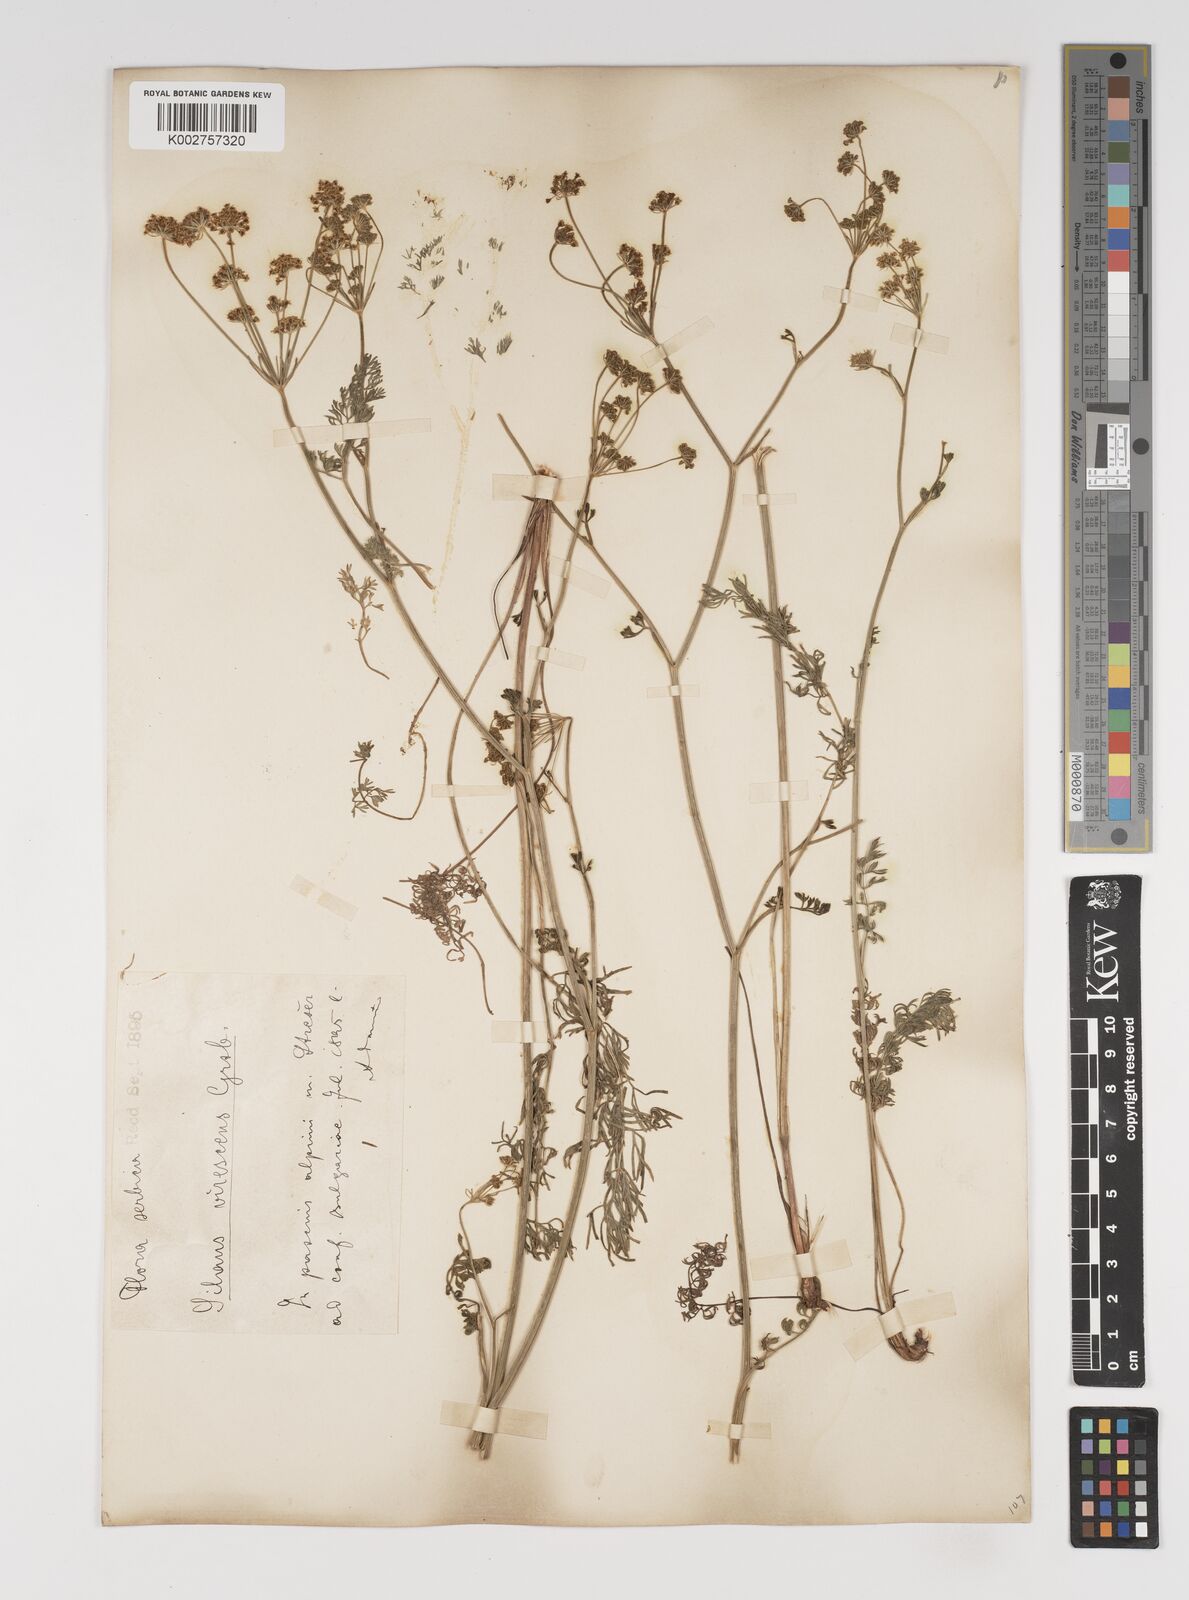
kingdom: Plantae
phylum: Tracheophyta
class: Magnoliopsida
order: Apiales
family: Apiaceae
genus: Gasparinia
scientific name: Gasparinia peucedanoides
